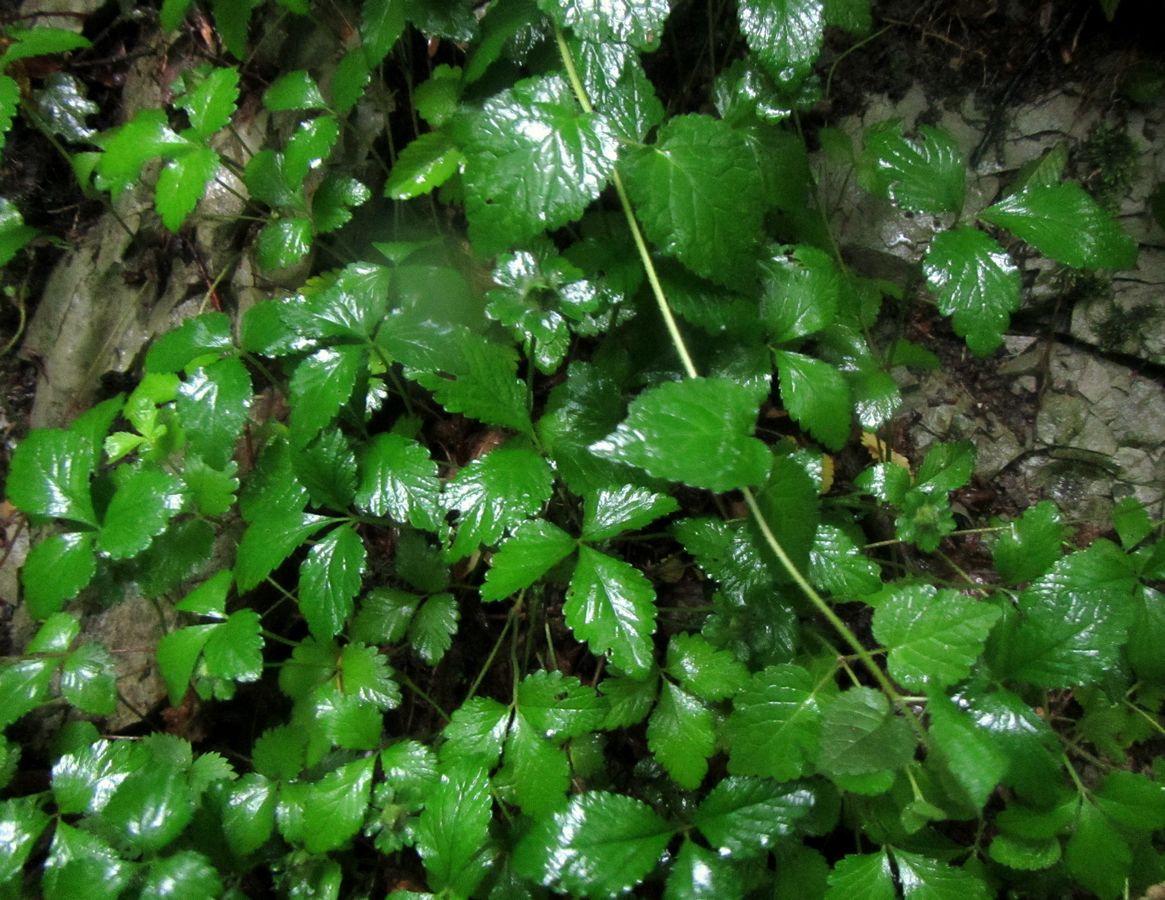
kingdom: Plantae
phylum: Tracheophyta
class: Magnoliopsida
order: Rosales
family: Rosaceae
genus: Potentilla
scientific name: Potentilla indica
